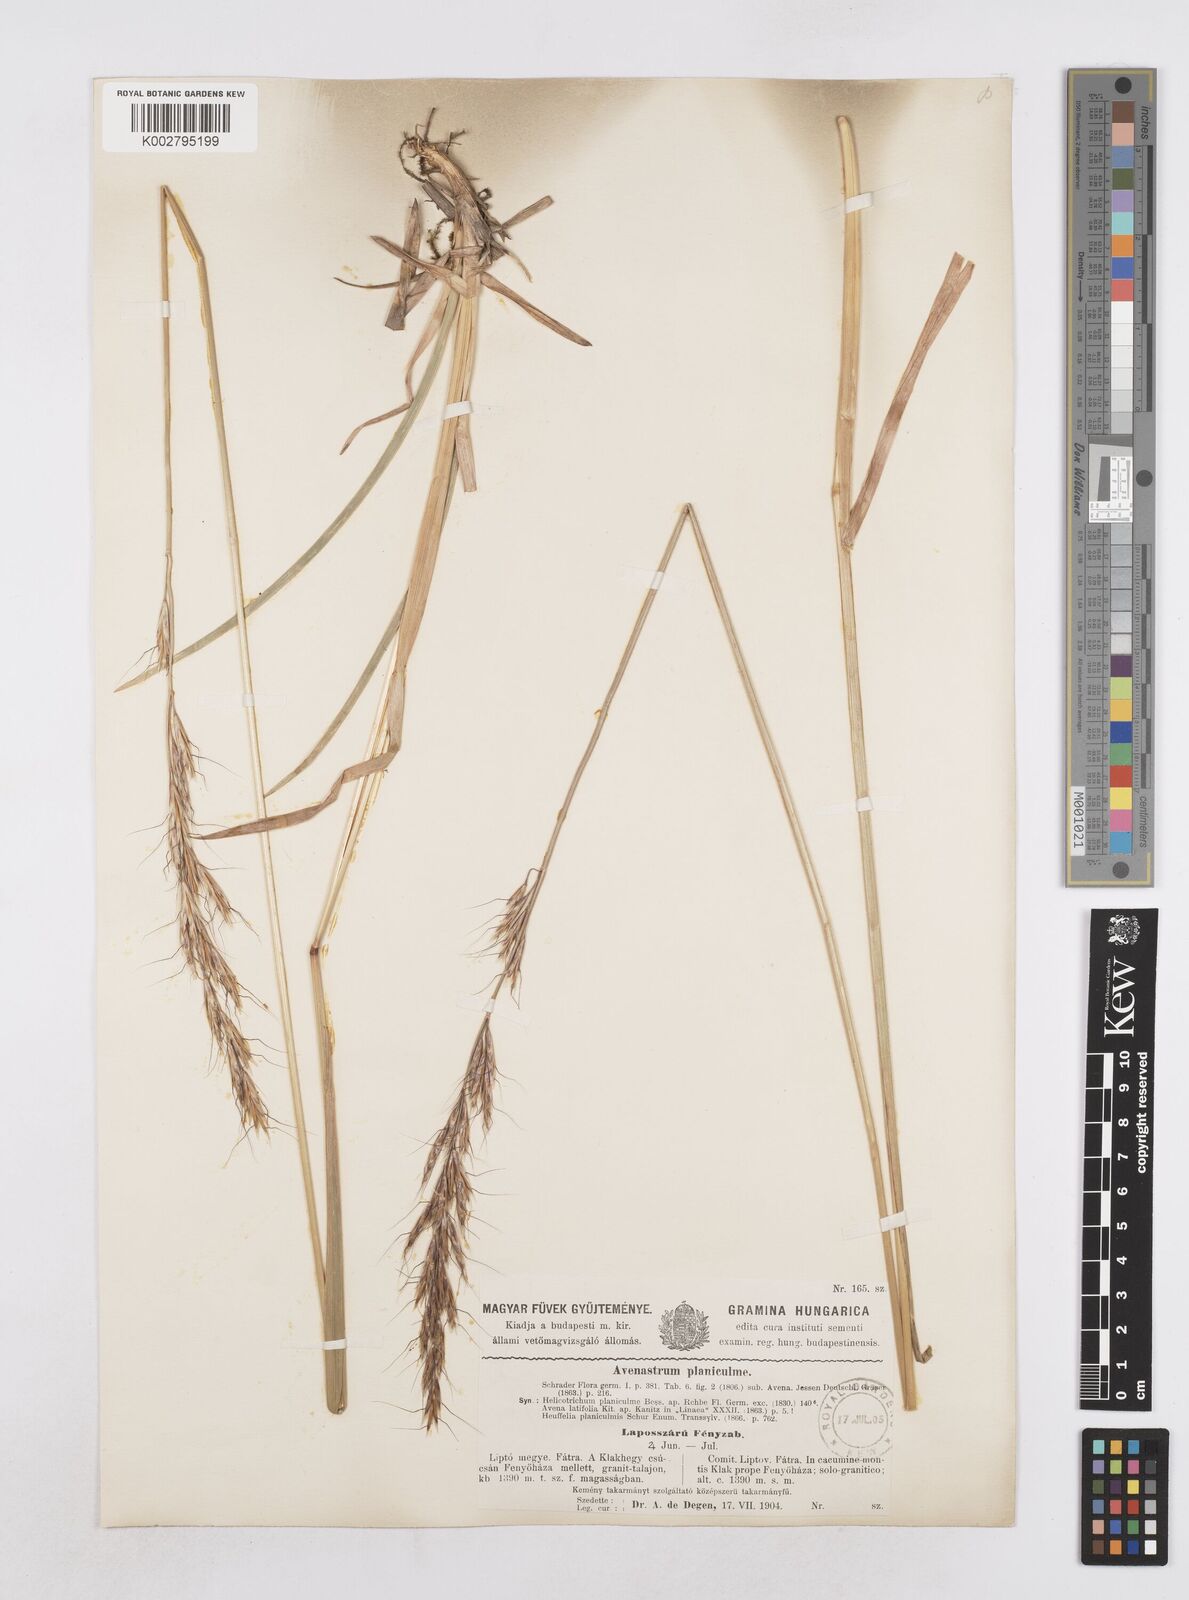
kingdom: Plantae
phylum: Tracheophyta
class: Liliopsida
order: Poales
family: Poaceae
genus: Helictochloa
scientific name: Helictochloa planiculmis
